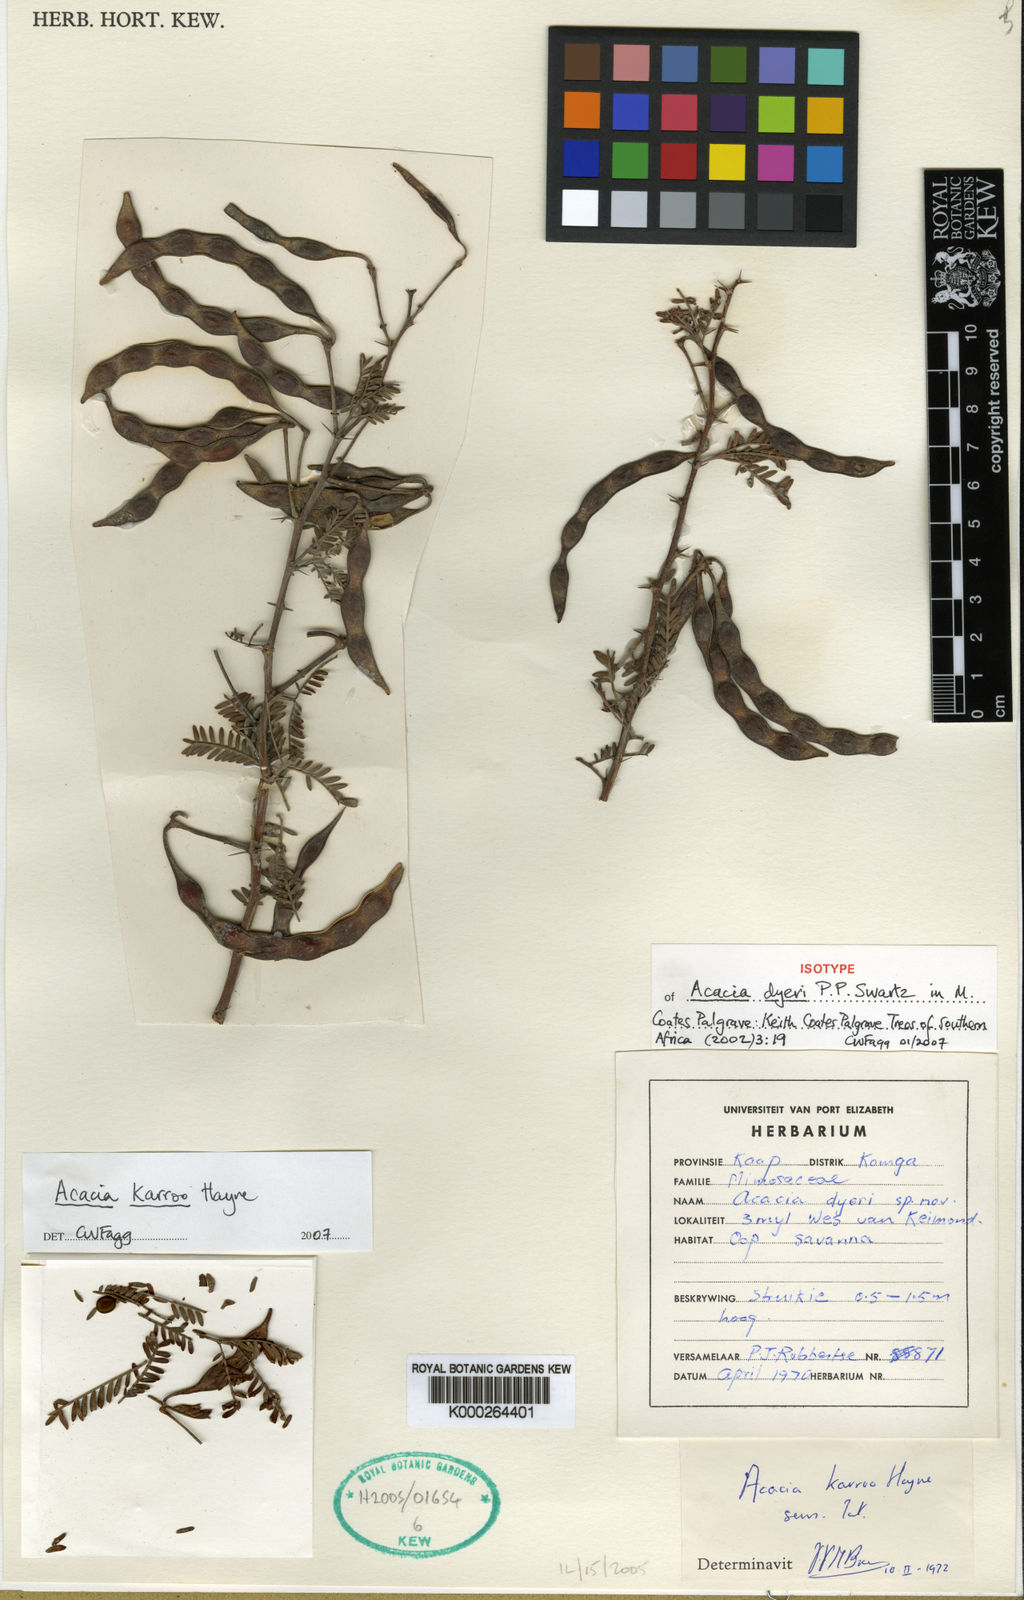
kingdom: Plantae
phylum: Tracheophyta
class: Magnoliopsida
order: Fabales
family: Fabaceae
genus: Vachellia
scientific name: Vachellia karroo
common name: Sweet thorn
